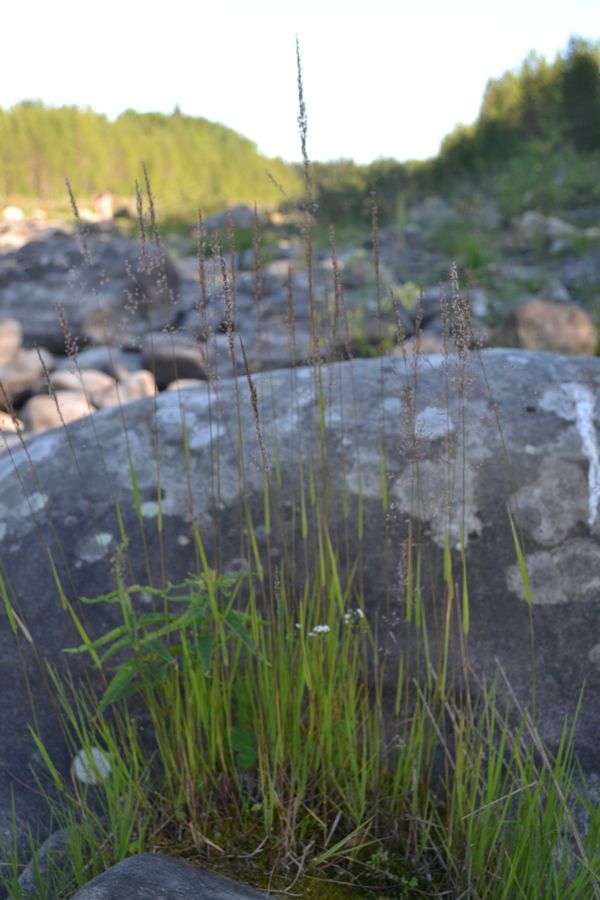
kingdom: Plantae
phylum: Tracheophyta
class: Liliopsida
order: Poales
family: Poaceae
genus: Agrostis
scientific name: Agrostis stolonifera
